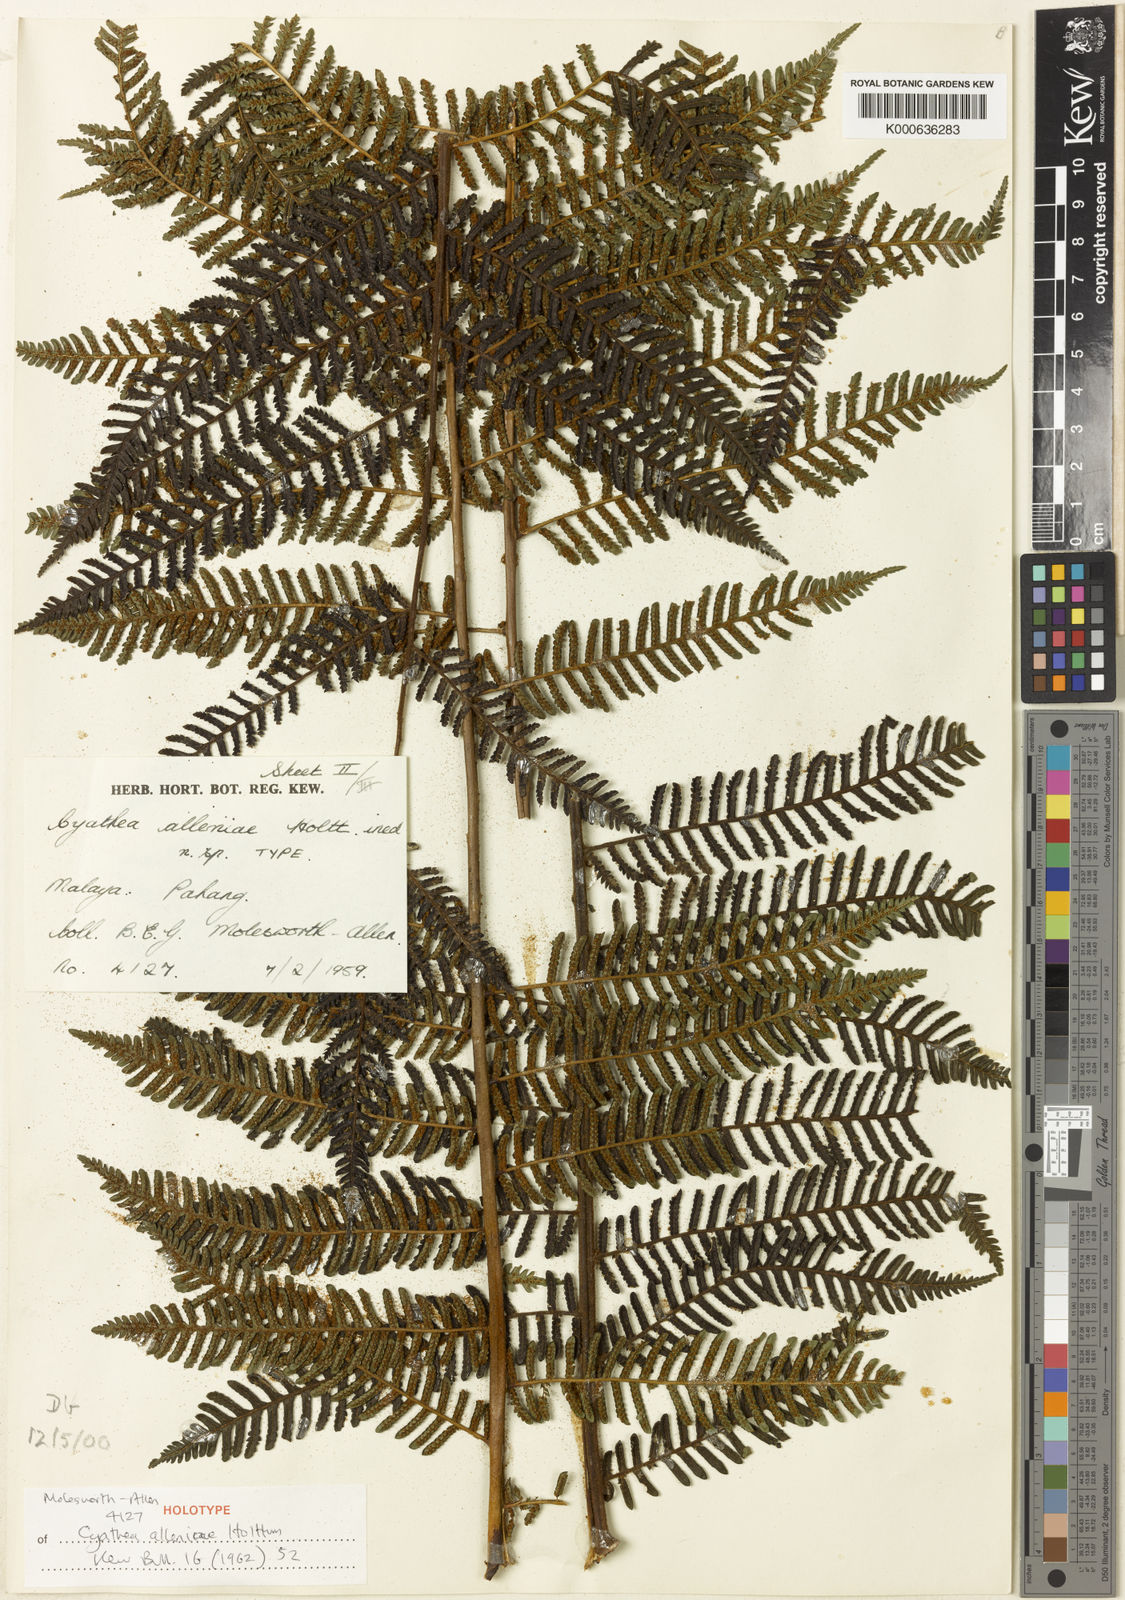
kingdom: Plantae
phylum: Tracheophyta
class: Polypodiopsida
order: Cyatheales
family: Cyatheaceae
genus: Alsophila
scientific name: Alsophila alleniae
